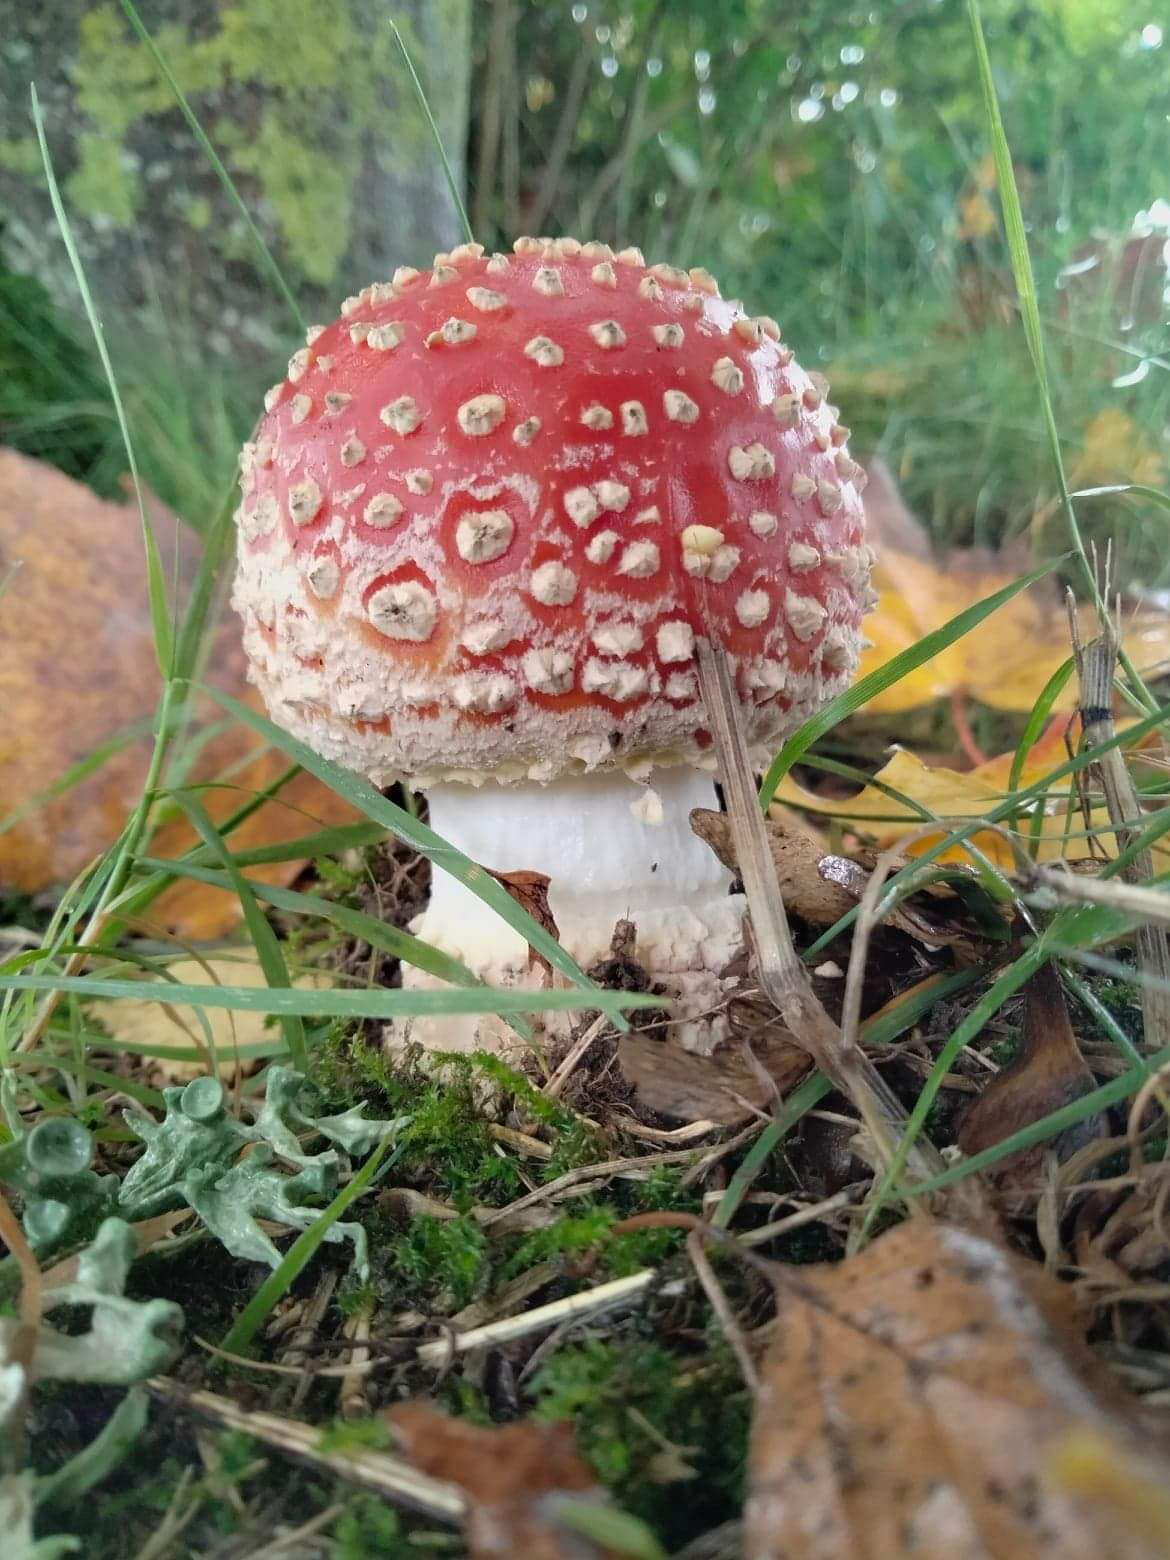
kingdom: Fungi
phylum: Basidiomycota
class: Agaricomycetes
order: Agaricales
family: Amanitaceae
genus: Amanita
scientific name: Amanita muscaria
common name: rød fluesvamp
